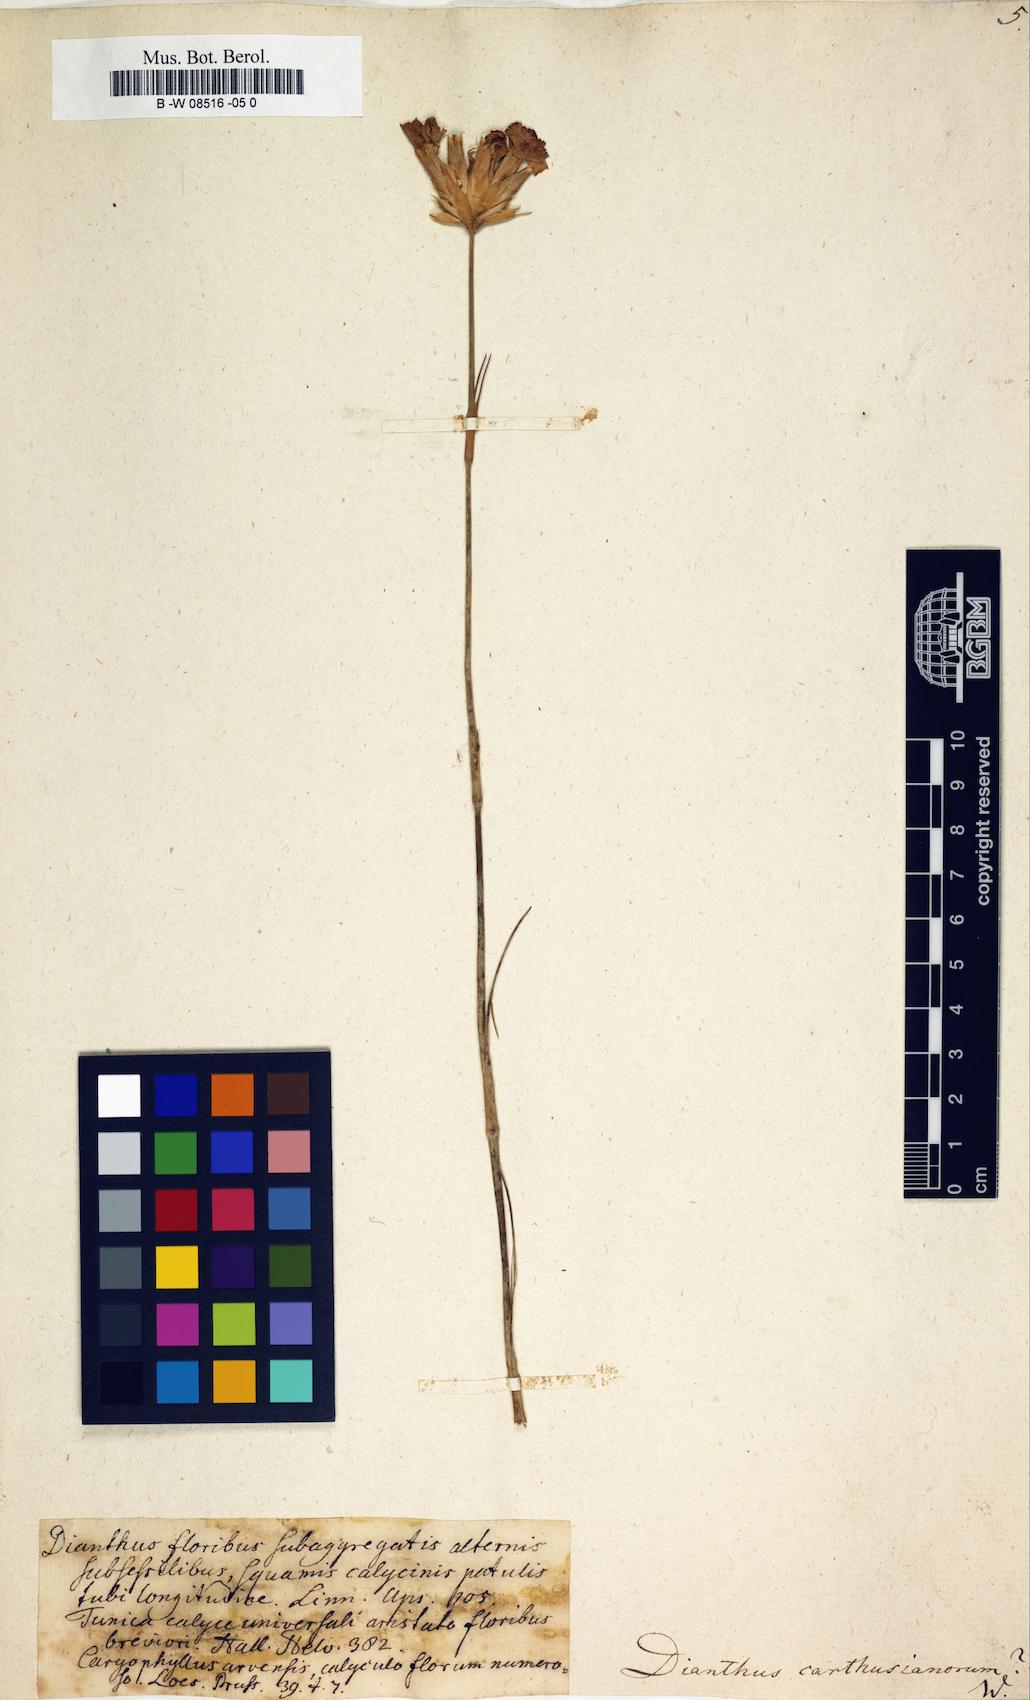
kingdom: Plantae
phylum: Tracheophyta
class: Magnoliopsida
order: Caryophyllales
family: Caryophyllaceae
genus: Dianthus
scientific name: Dianthus carthusianorum
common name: Carthusian pink
